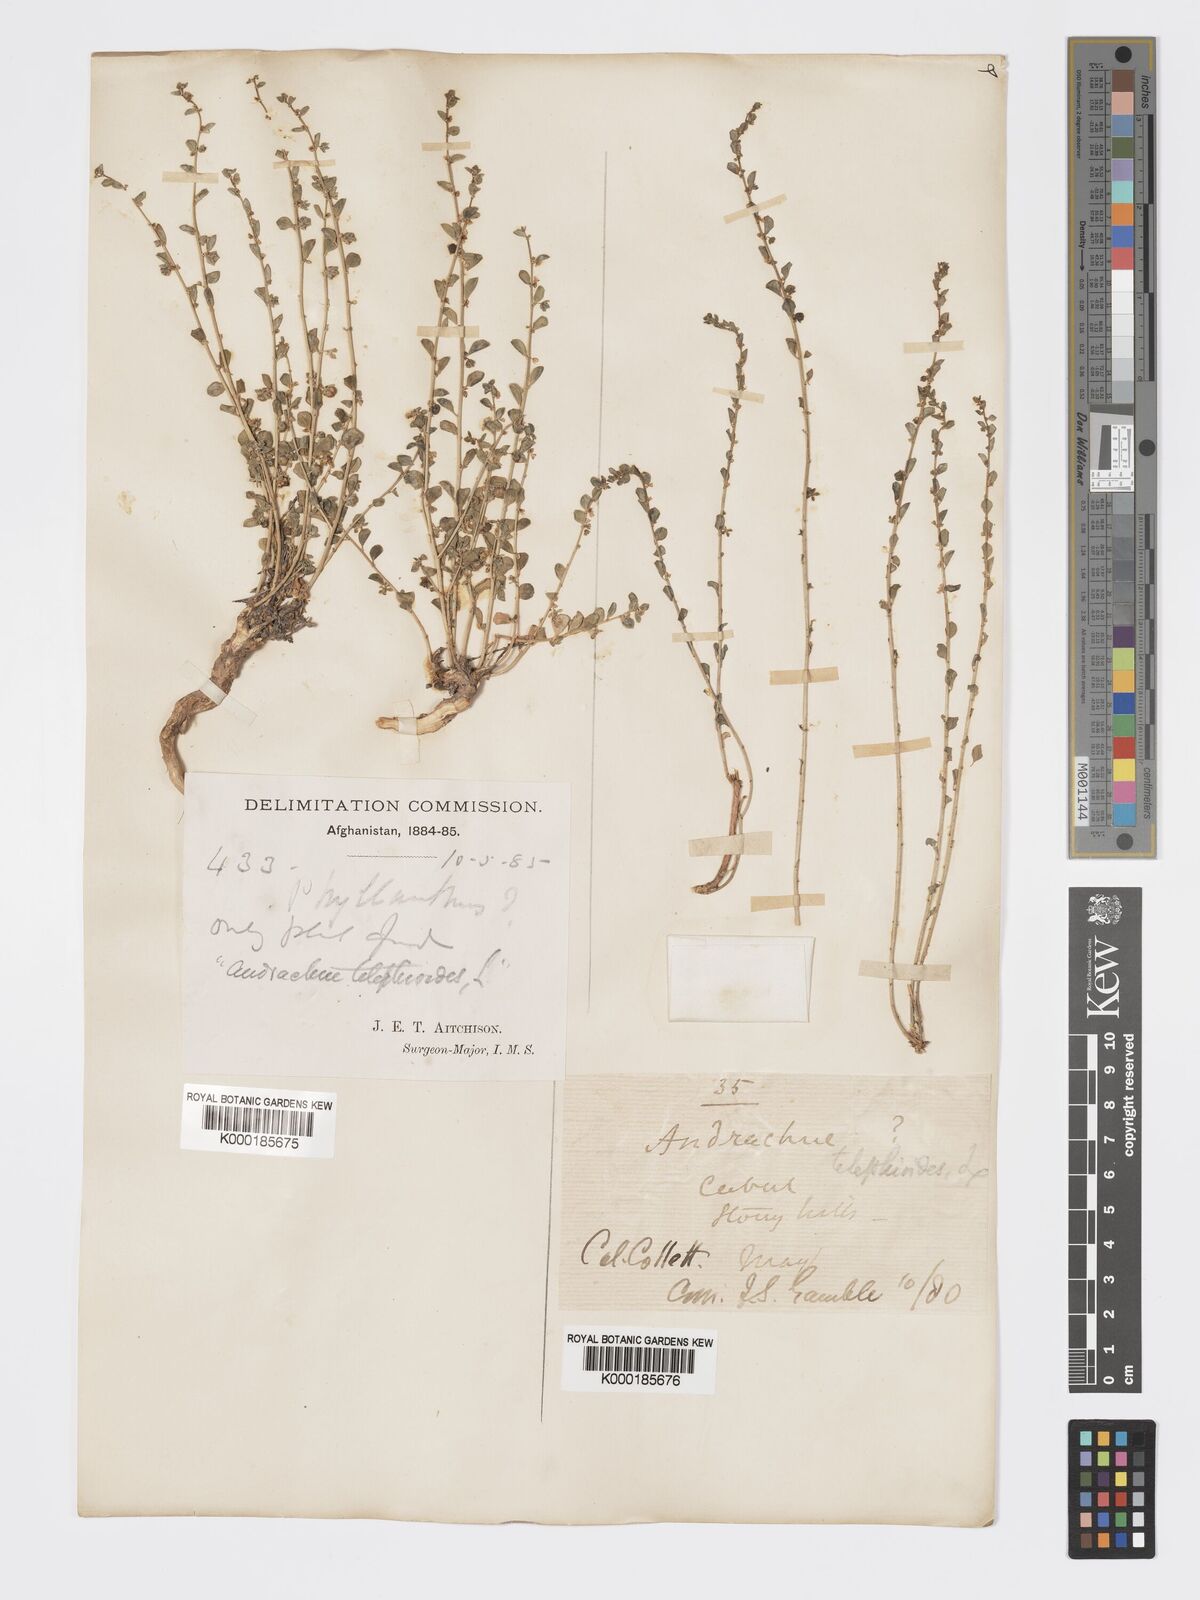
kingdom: Plantae
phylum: Tracheophyta
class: Magnoliopsida
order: Malpighiales
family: Phyllanthaceae
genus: Andrachne
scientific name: Andrachne telephioides
